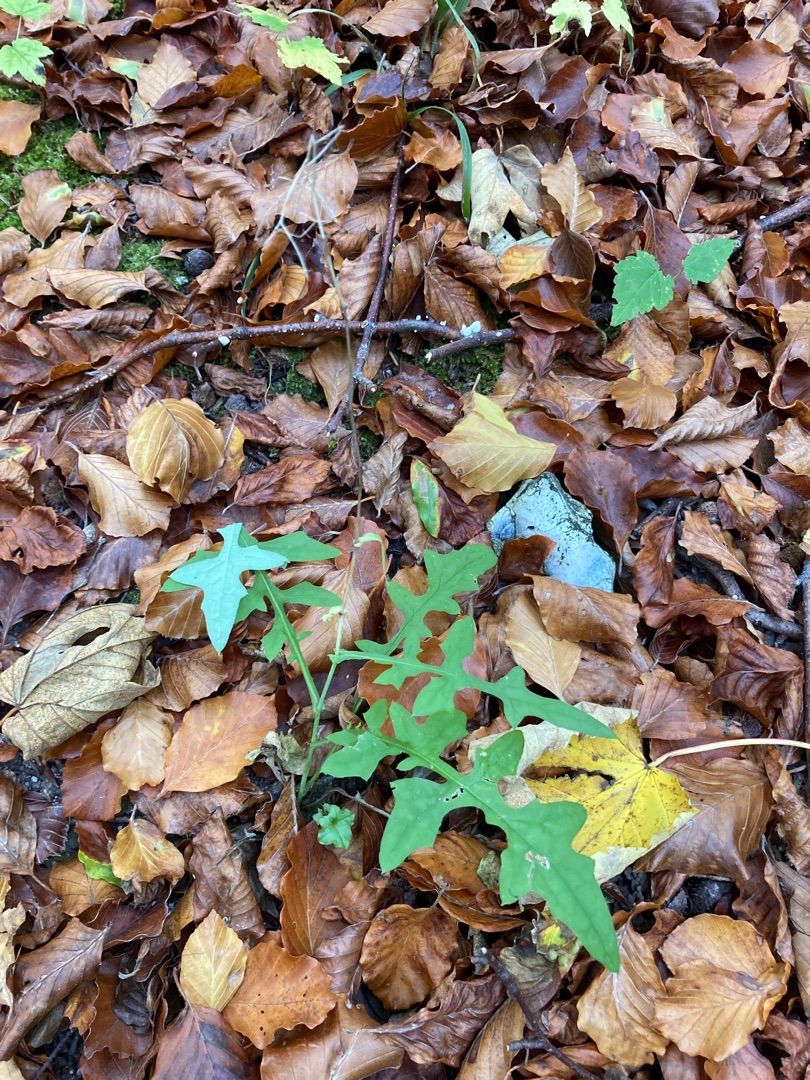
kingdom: Plantae
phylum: Tracheophyta
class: Magnoliopsida
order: Asterales
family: Asteraceae
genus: Mycelis
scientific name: Mycelis muralis
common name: Skov-salat
